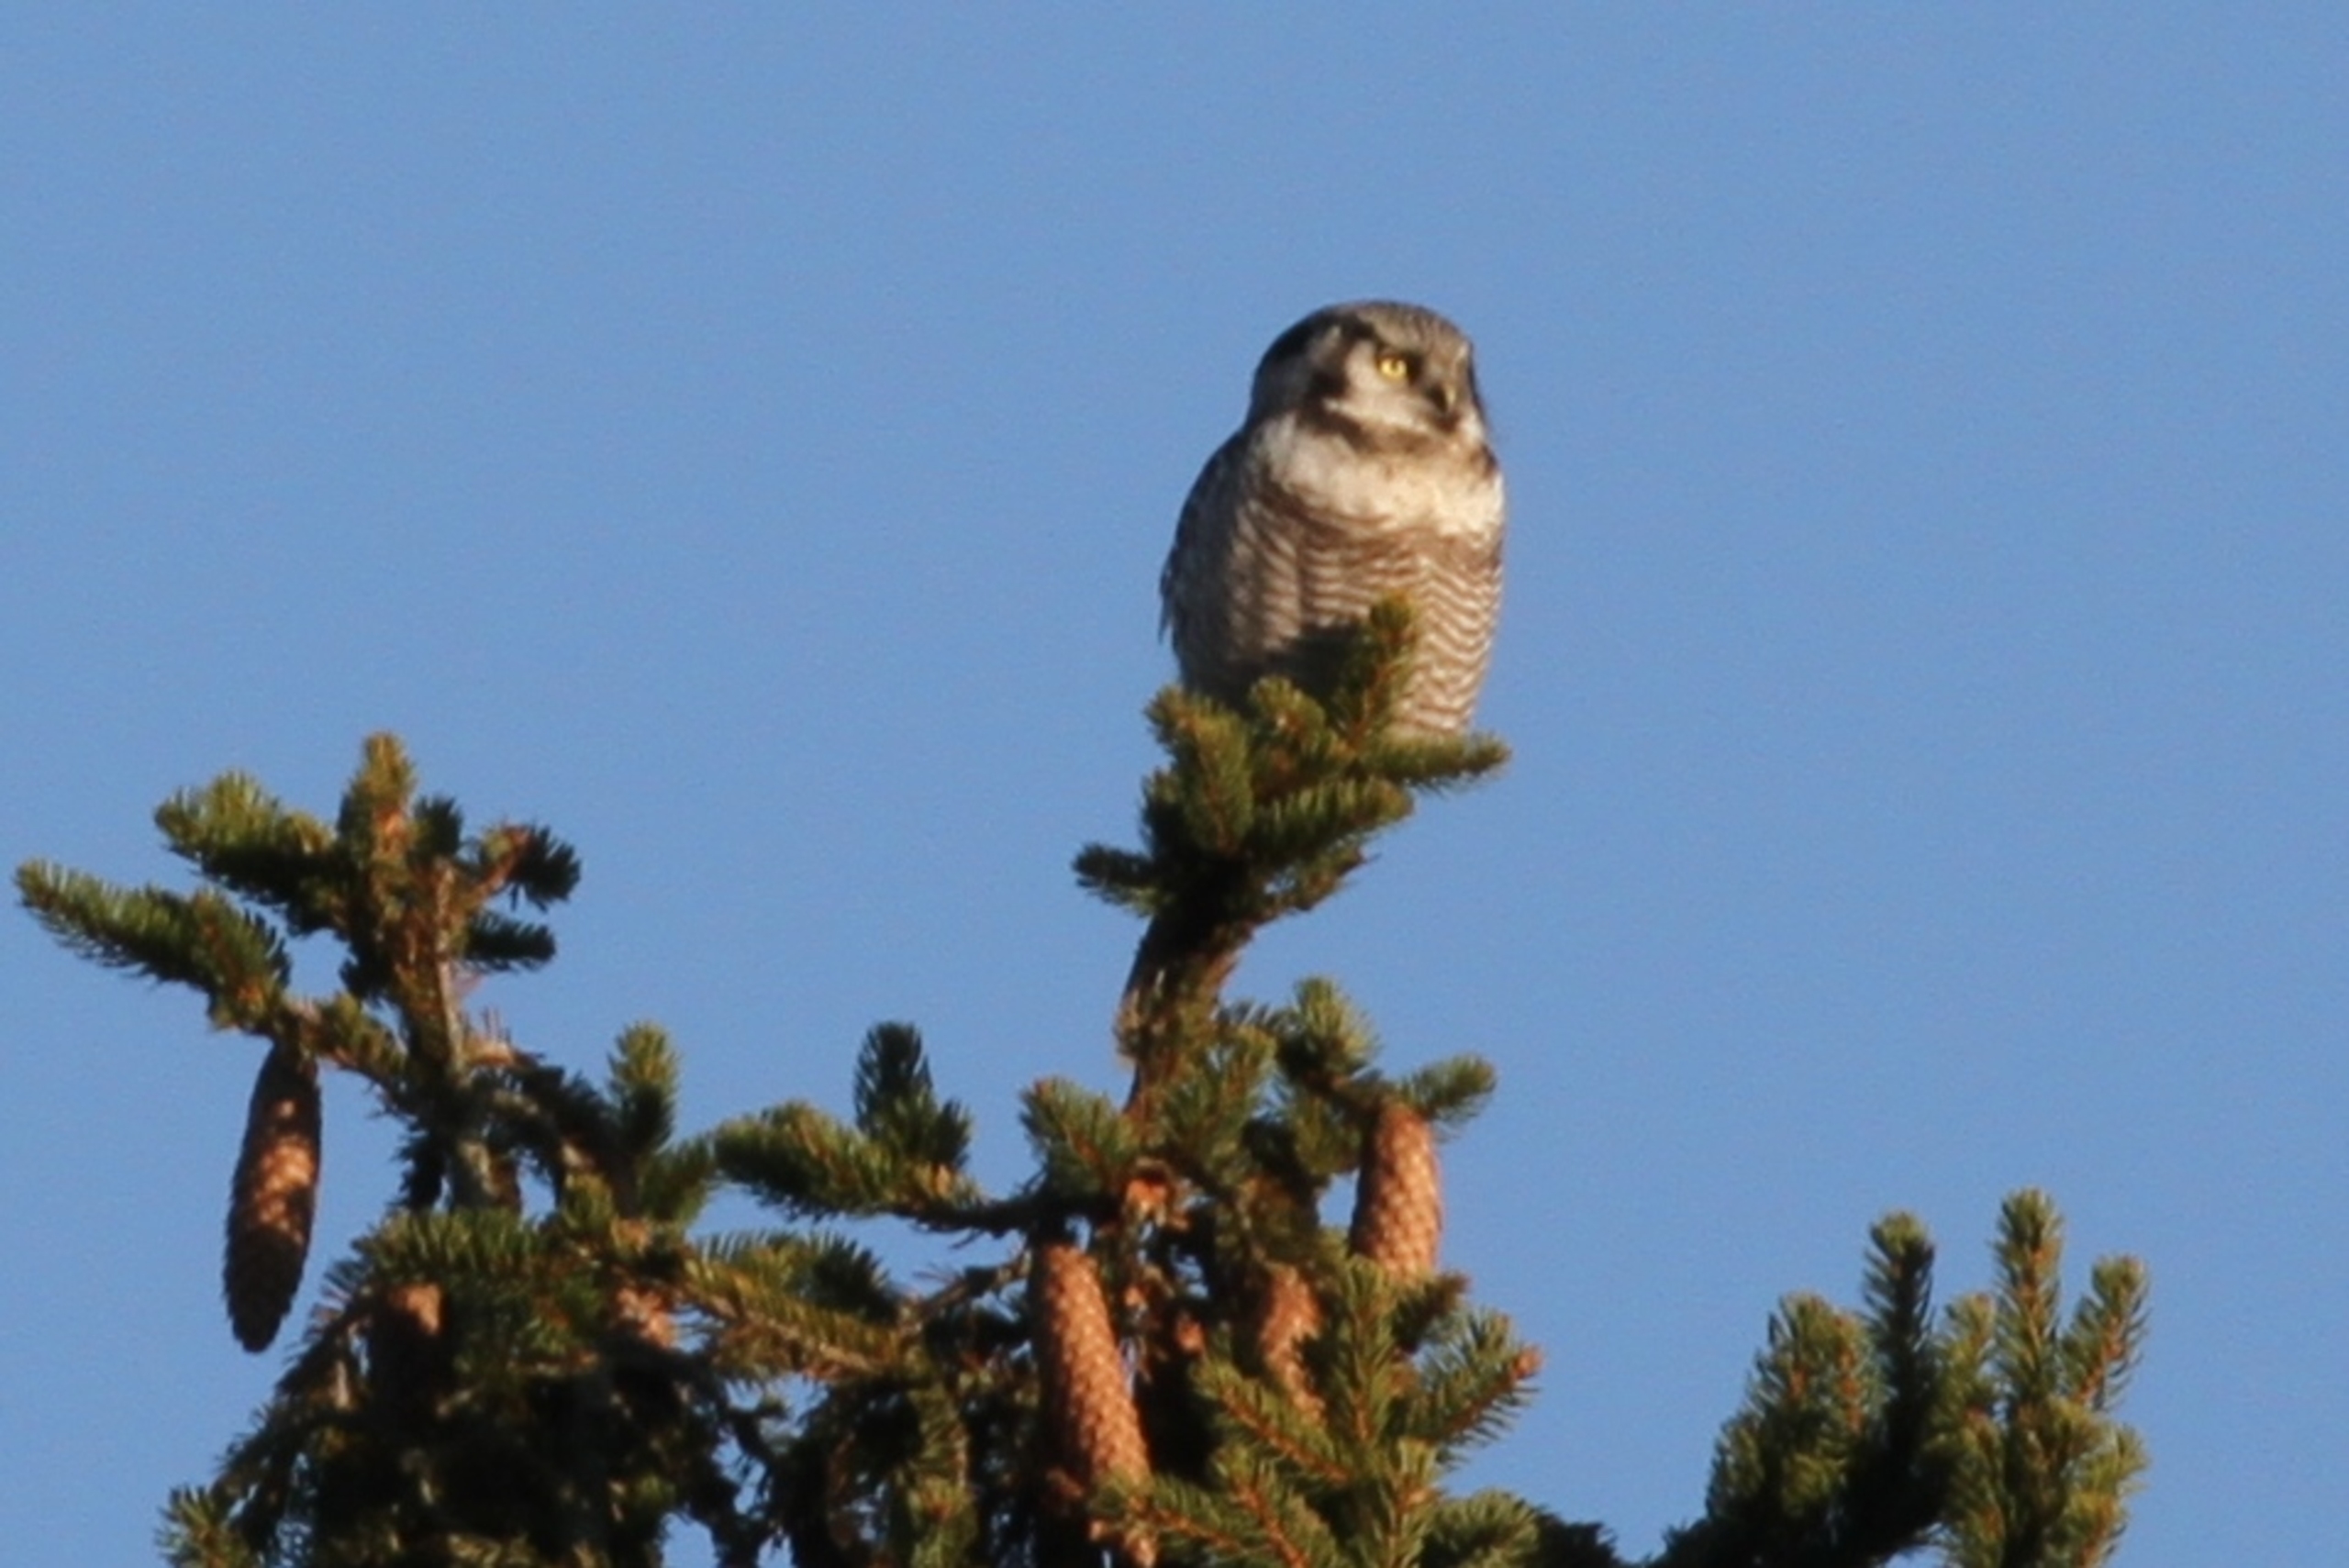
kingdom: Animalia
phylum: Chordata
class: Aves
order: Strigiformes
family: Strigidae
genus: Surnia
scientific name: Surnia ulula
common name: Høgeugle
